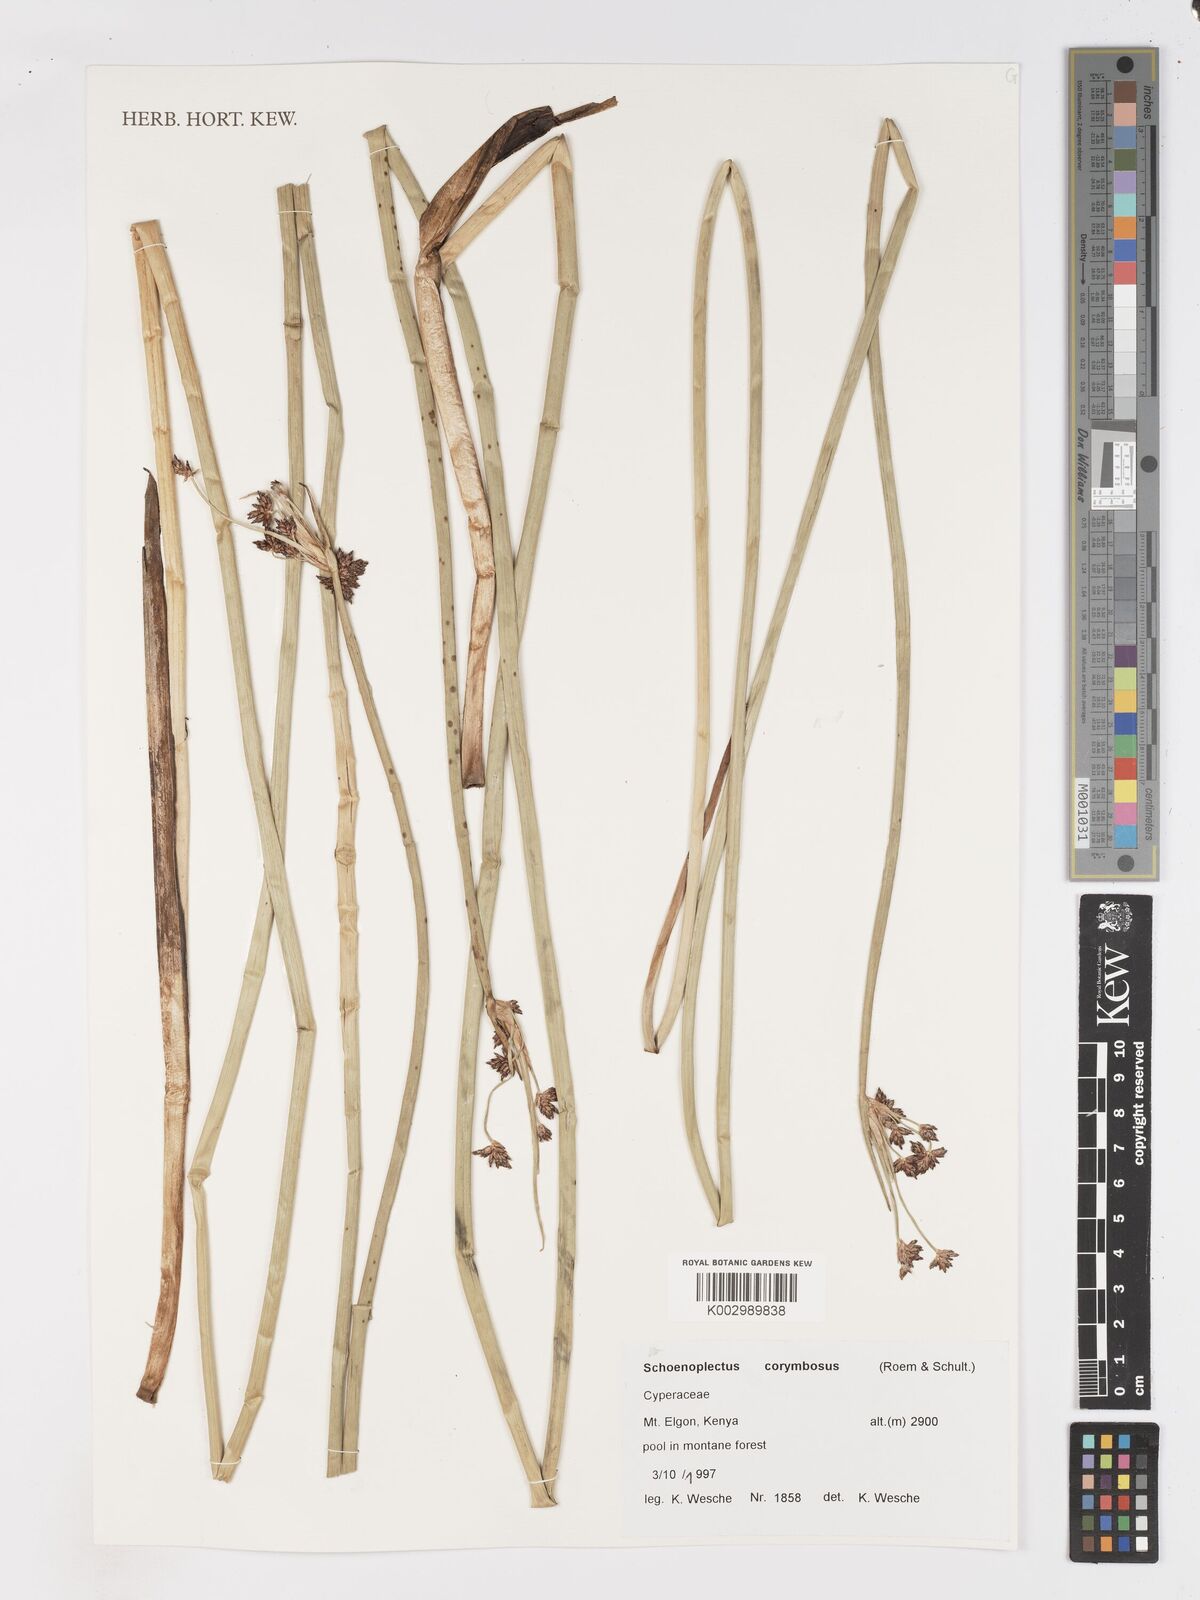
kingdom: Plantae
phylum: Tracheophyta
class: Liliopsida
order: Poales
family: Cyperaceae
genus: Schoenoplectiella
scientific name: Schoenoplectiella corymbosa
